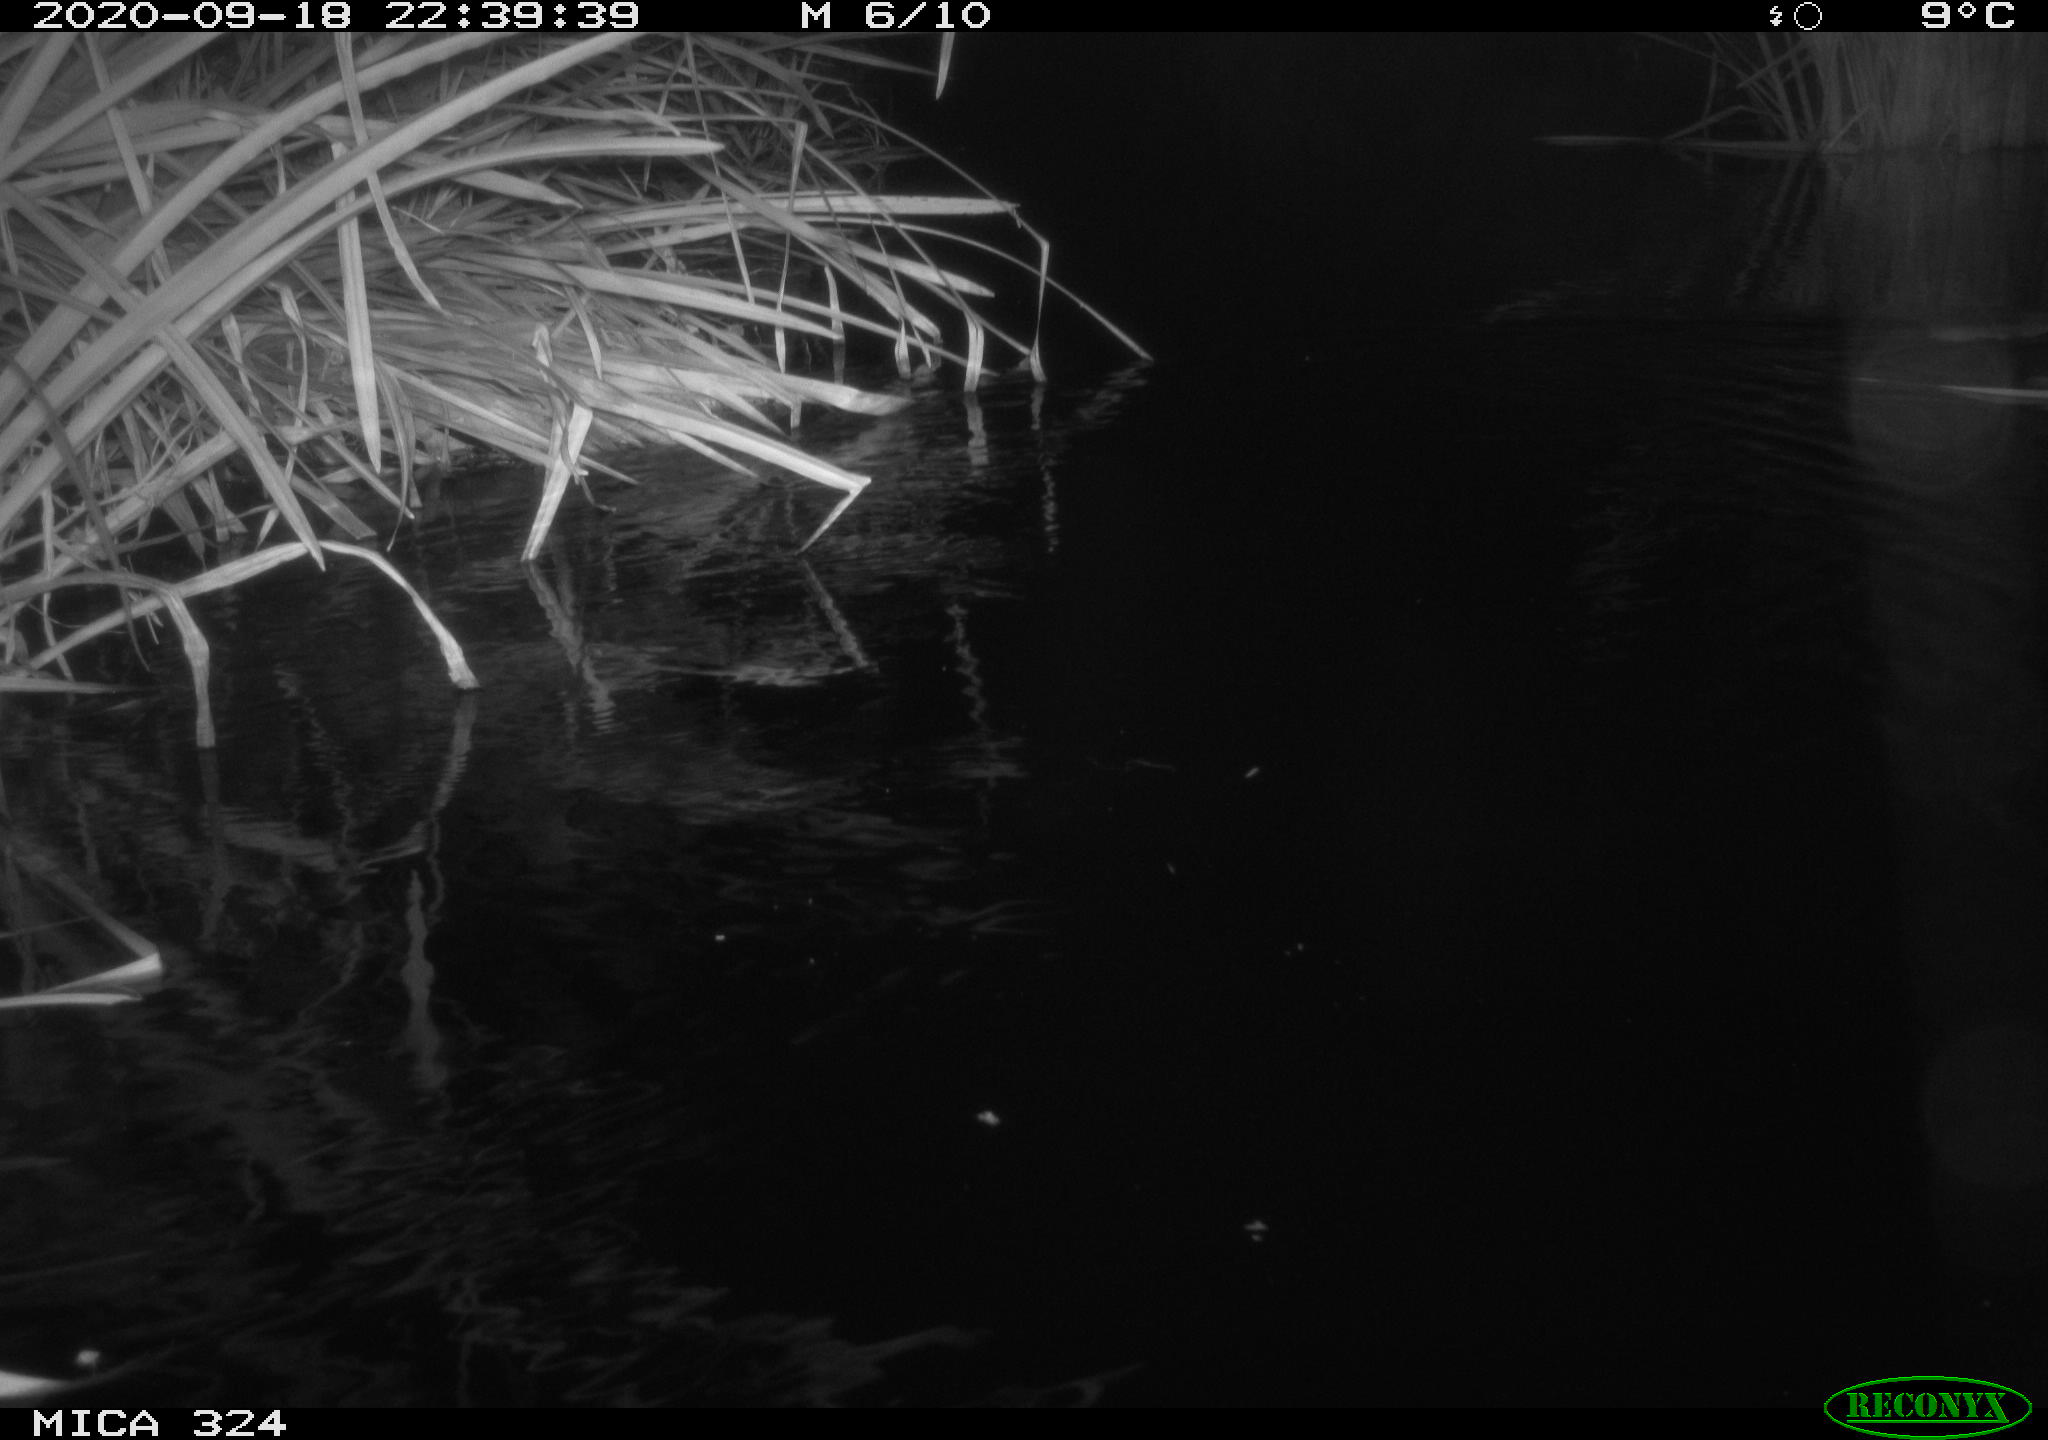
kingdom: Animalia
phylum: Chordata
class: Mammalia
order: Rodentia
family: Cricetidae
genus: Ondatra
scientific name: Ondatra zibethicus
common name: Muskrat
